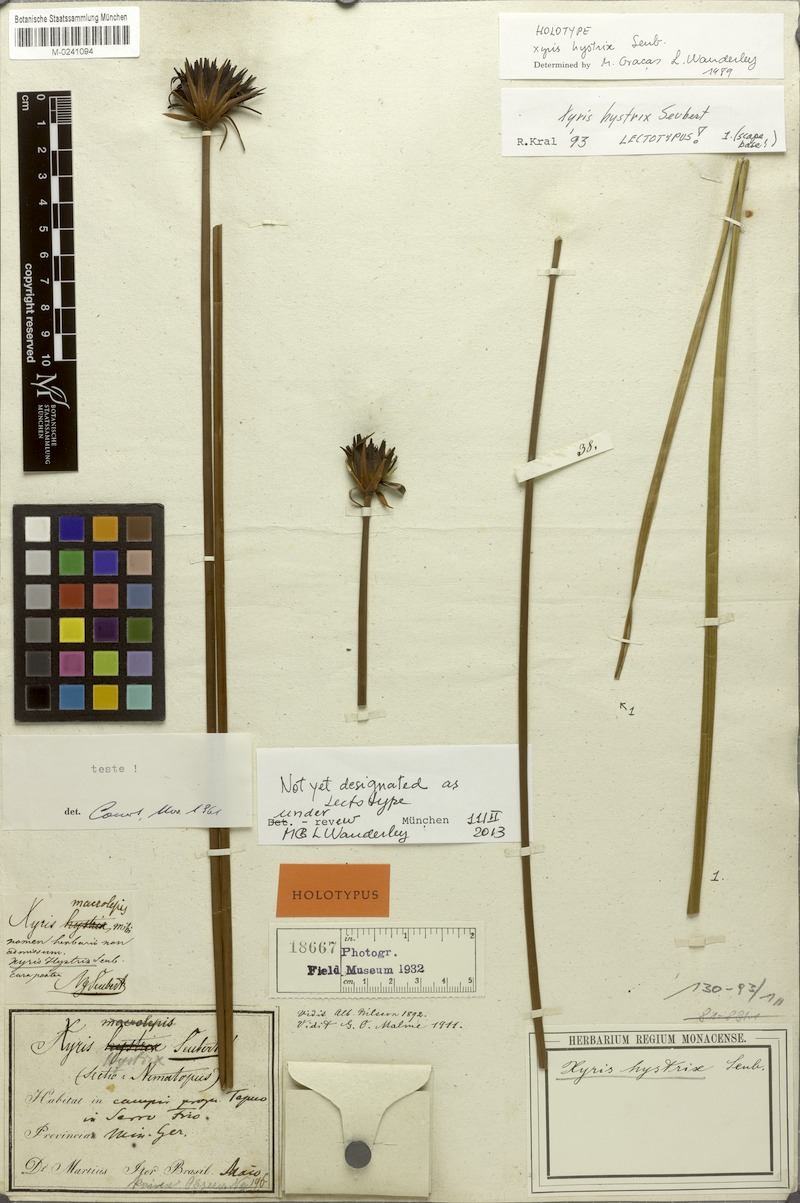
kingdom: Plantae
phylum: Tracheophyta
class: Liliopsida
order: Poales
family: Xyridaceae
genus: Xyris
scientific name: Xyris hystrix
